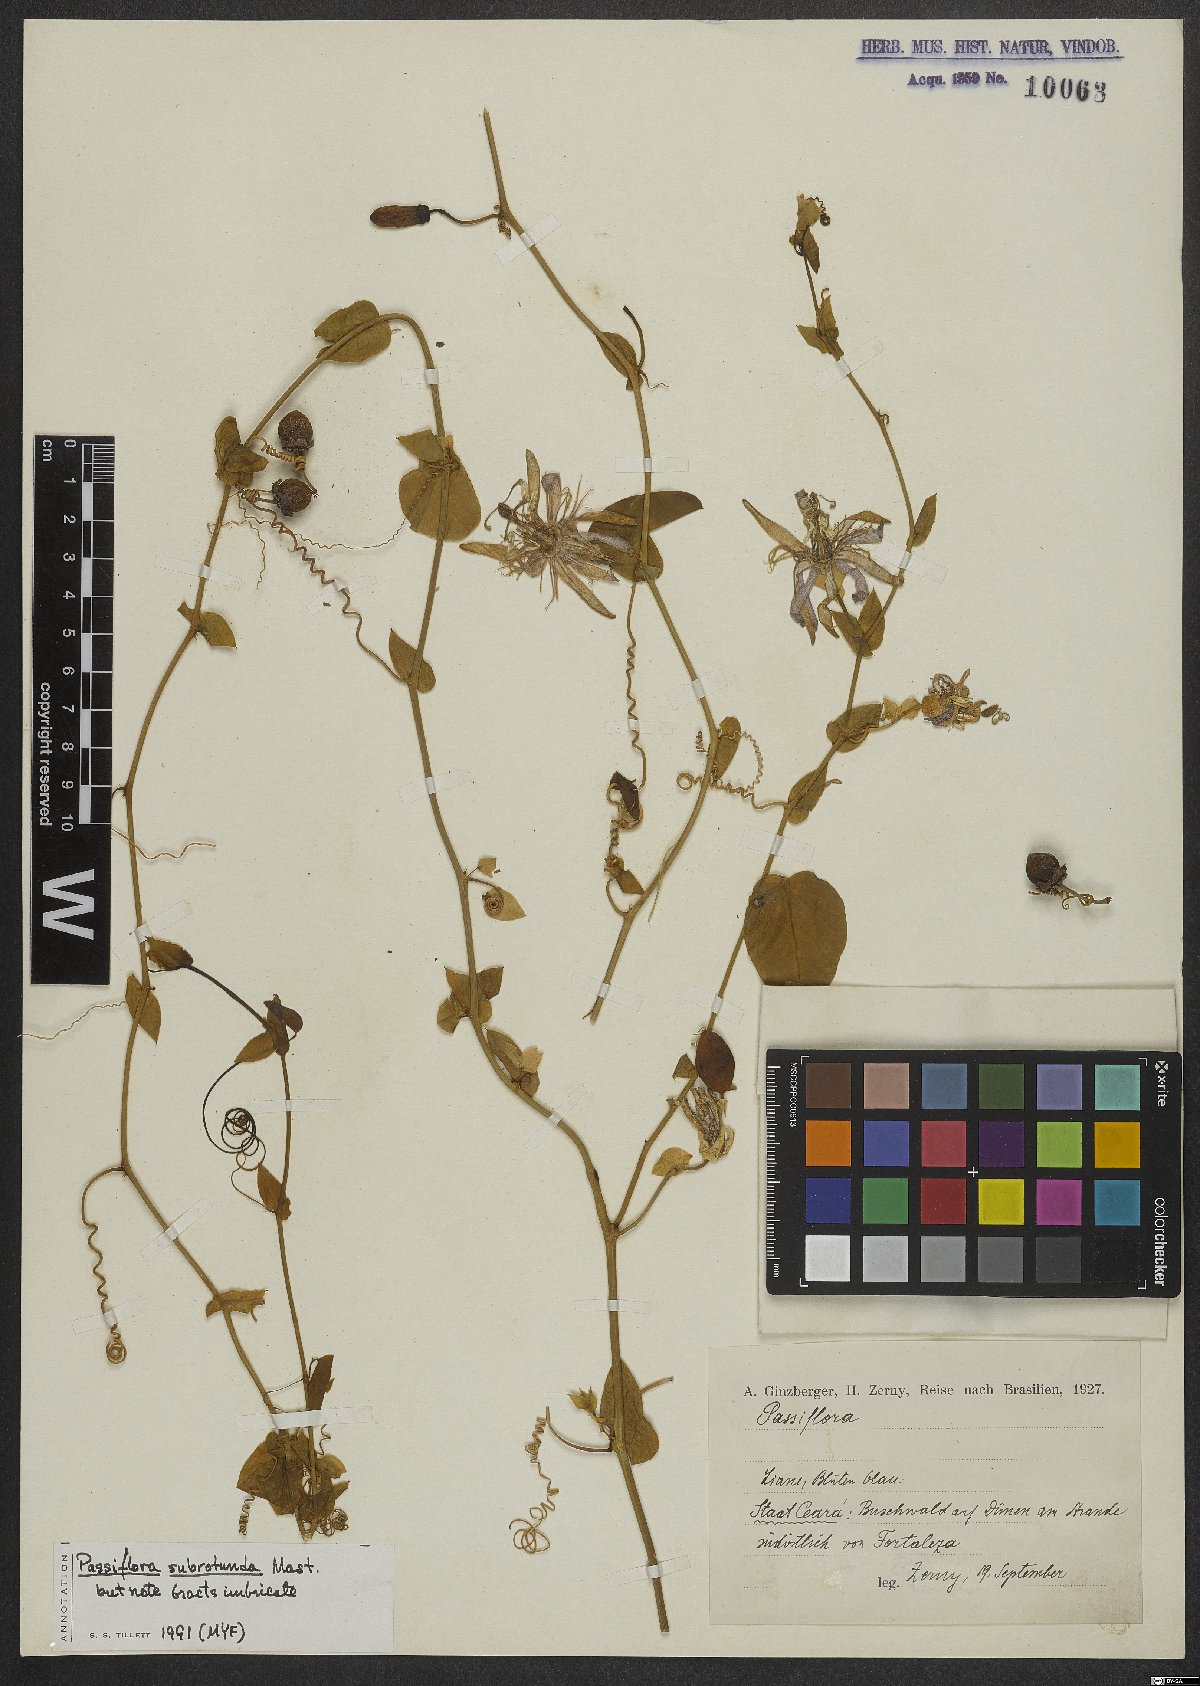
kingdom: Plantae
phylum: Tracheophyta
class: Magnoliopsida
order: Malpighiales
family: Passifloraceae
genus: Passiflora
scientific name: Passiflora subrotunda
